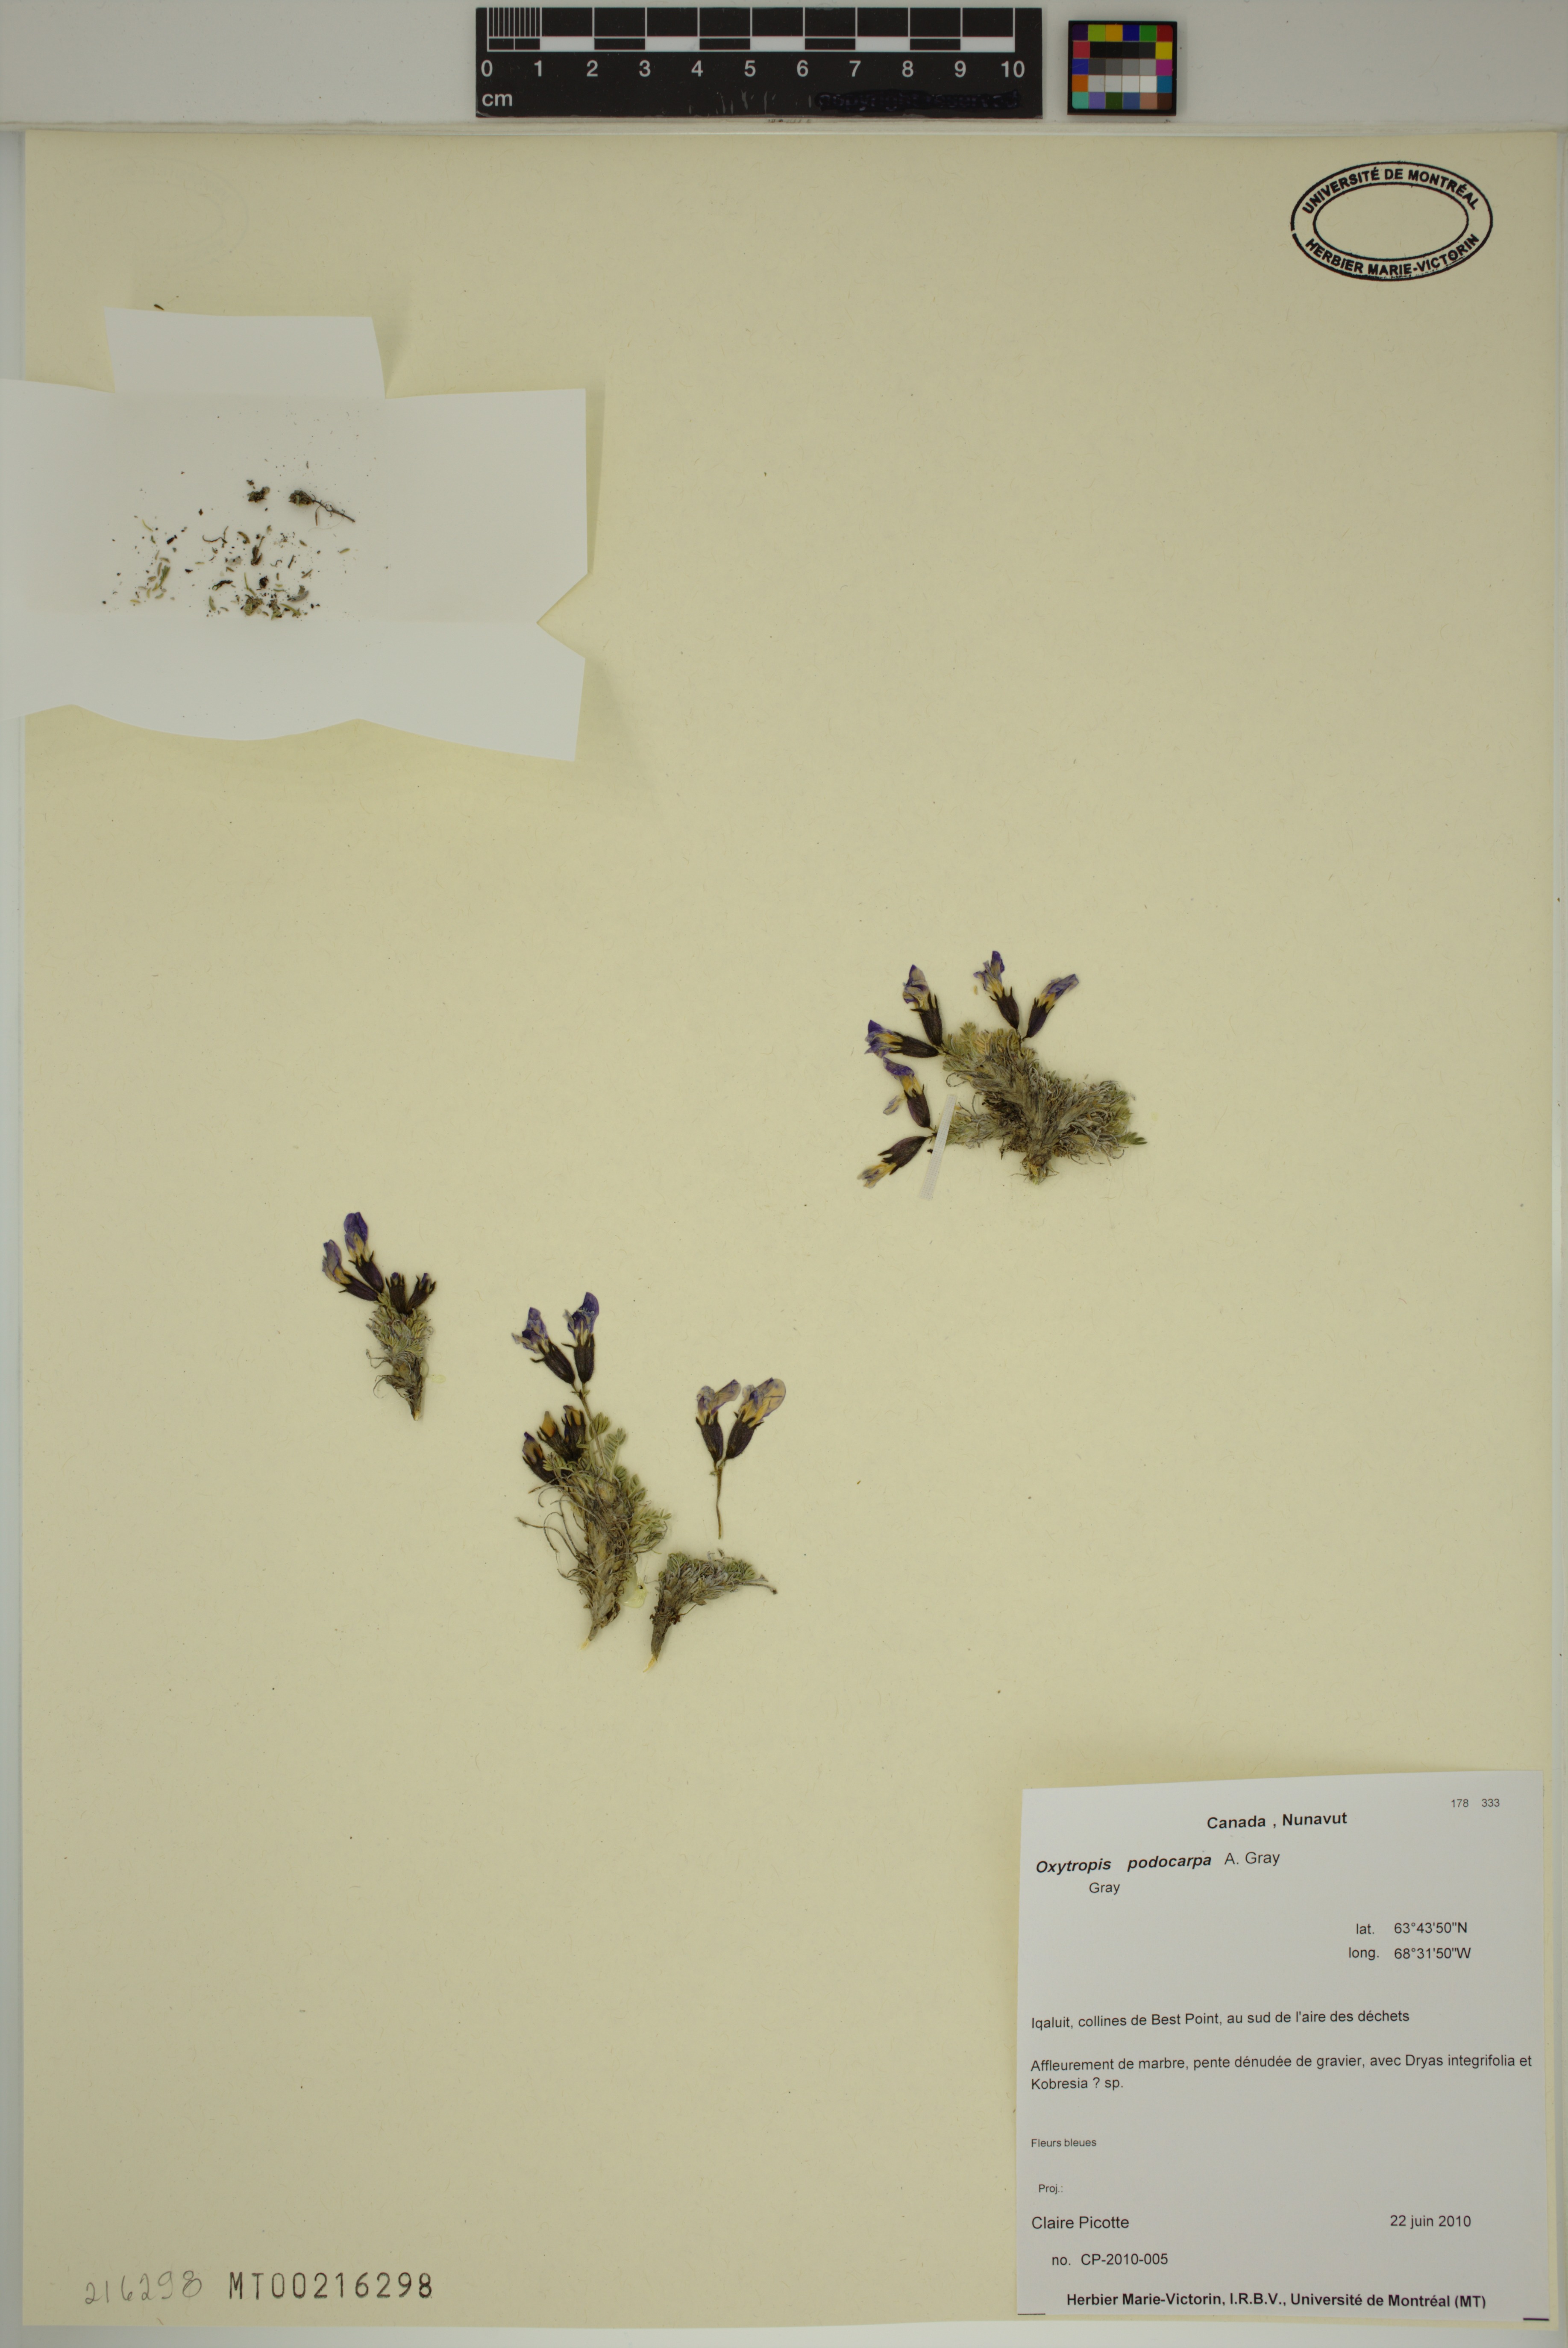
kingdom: Plantae
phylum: Tracheophyta
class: Magnoliopsida
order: Fabales
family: Fabaceae
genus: Oxytropis
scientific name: Oxytropis podocarpa
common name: Gray's oxytrope
